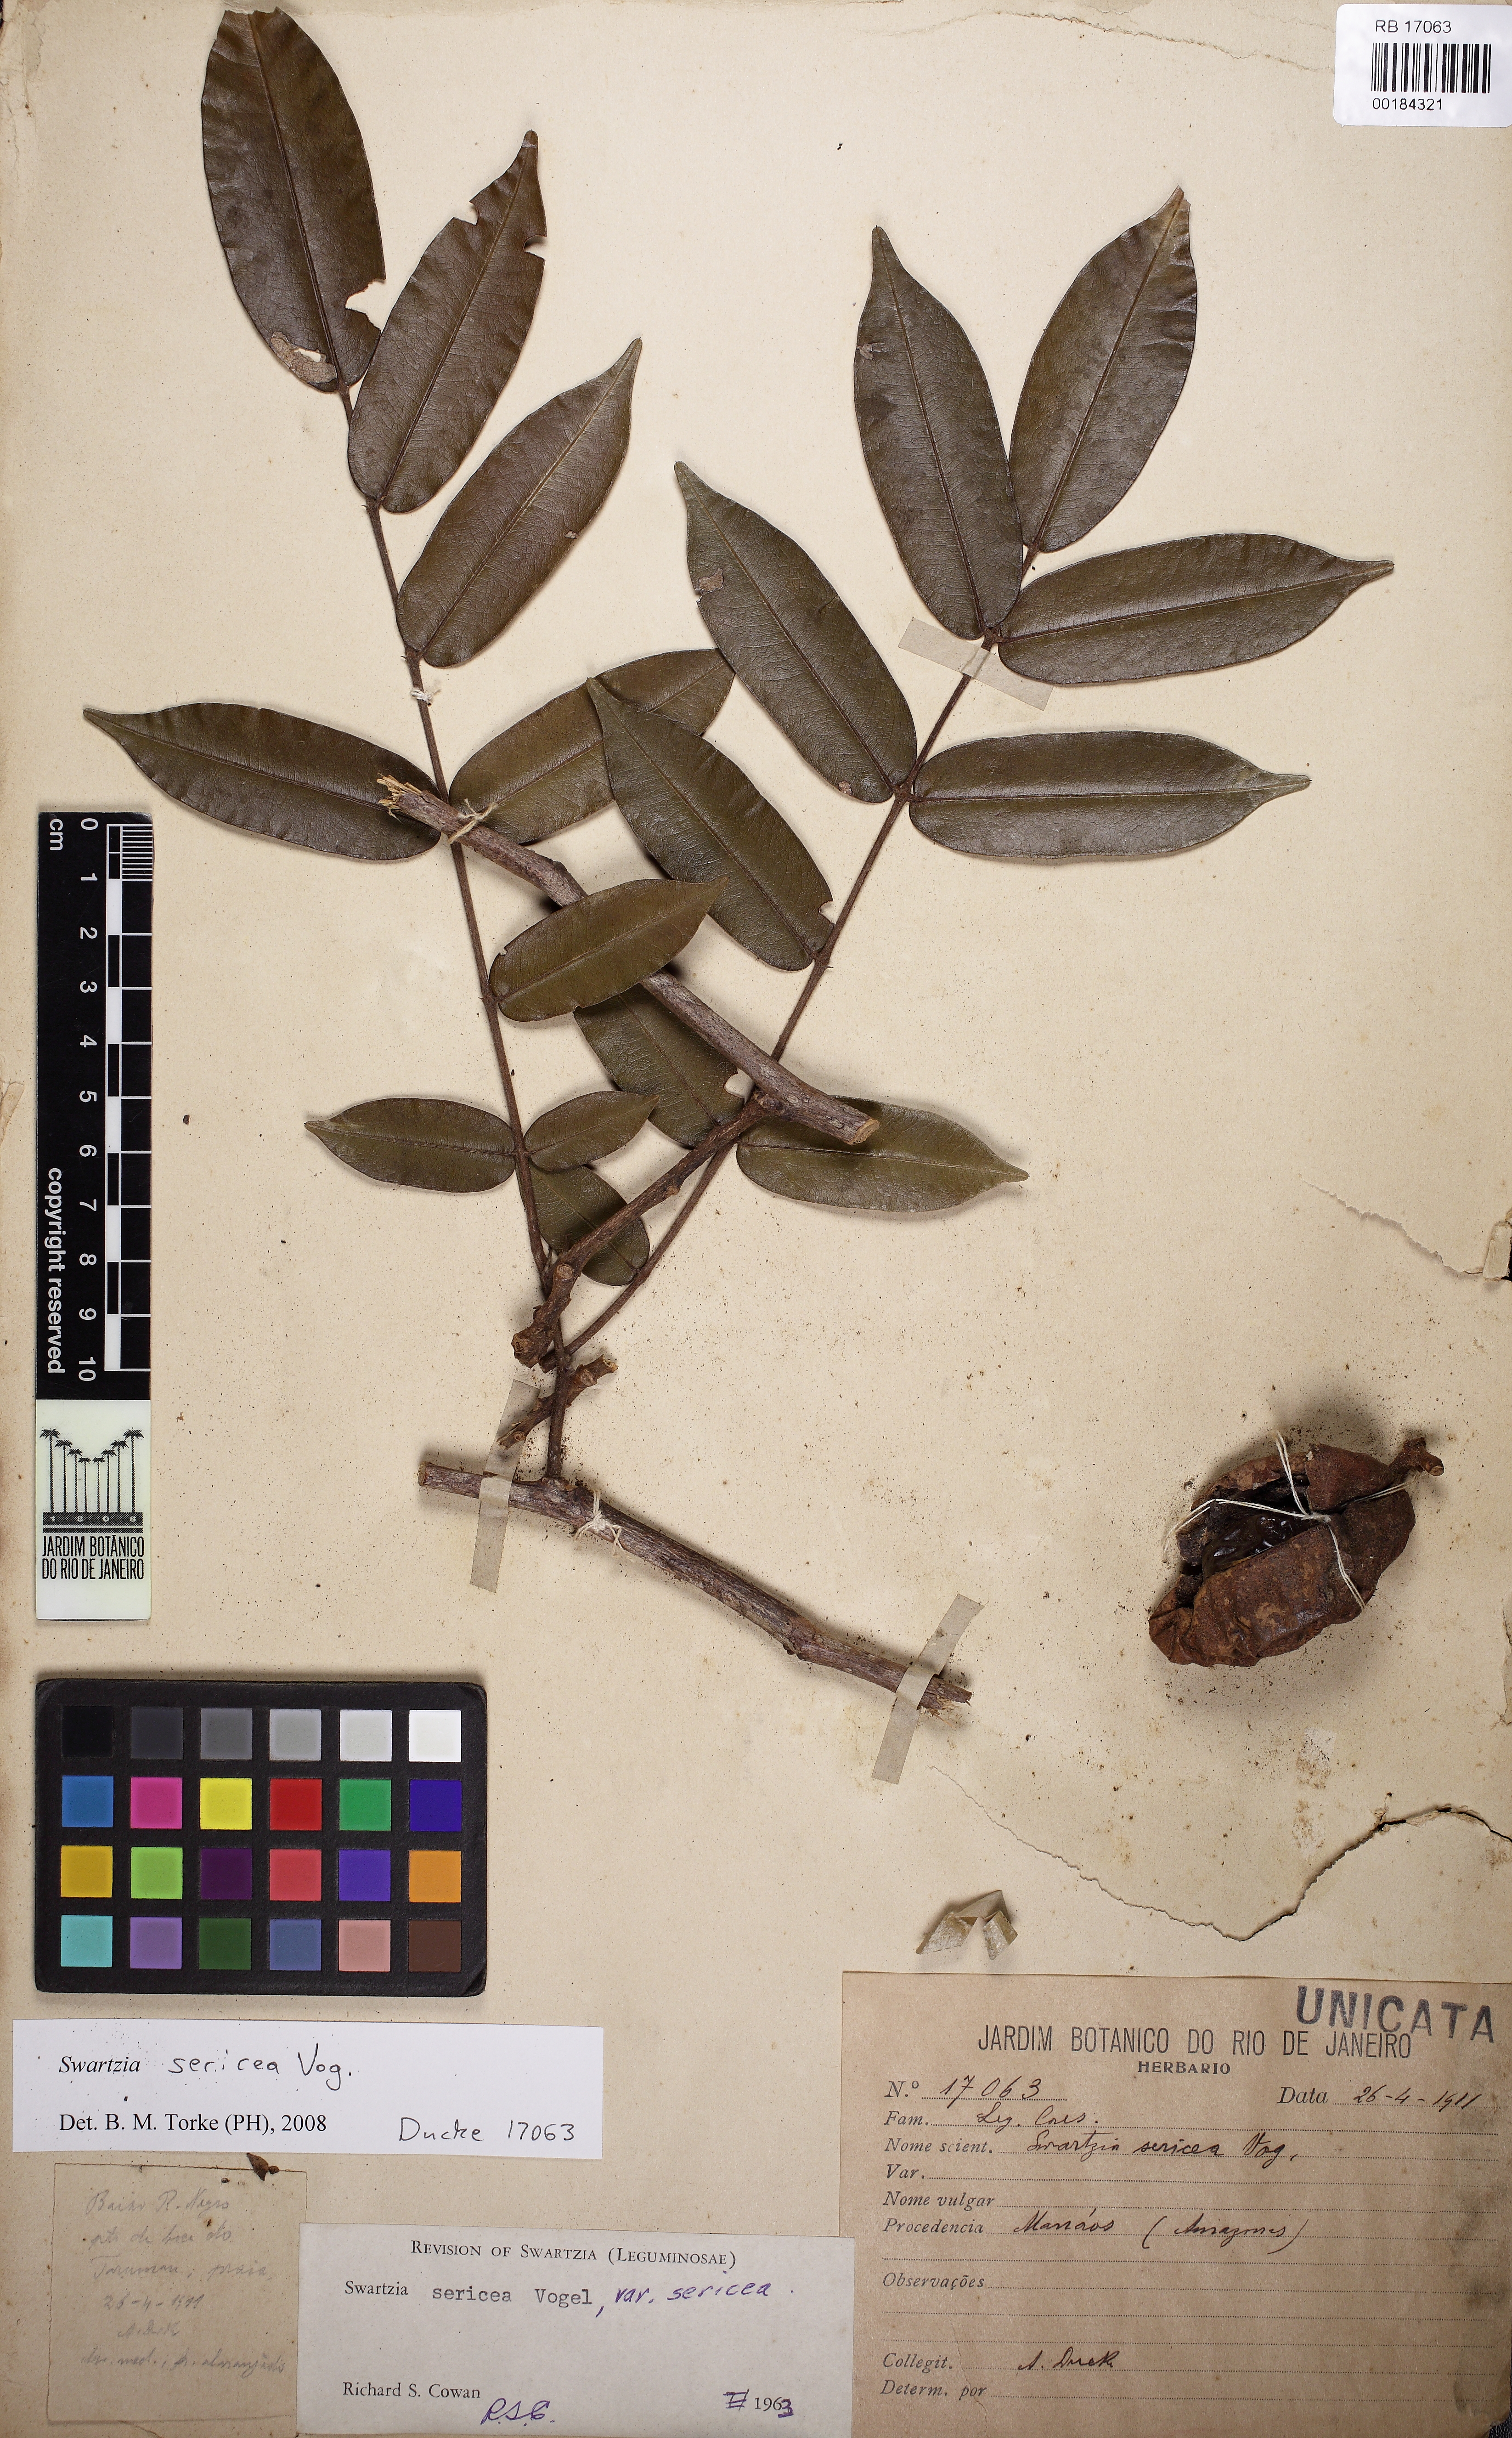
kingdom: Plantae
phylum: Tracheophyta
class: Magnoliopsida
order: Fabales
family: Fabaceae
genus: Swartzia
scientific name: Swartzia sericea
